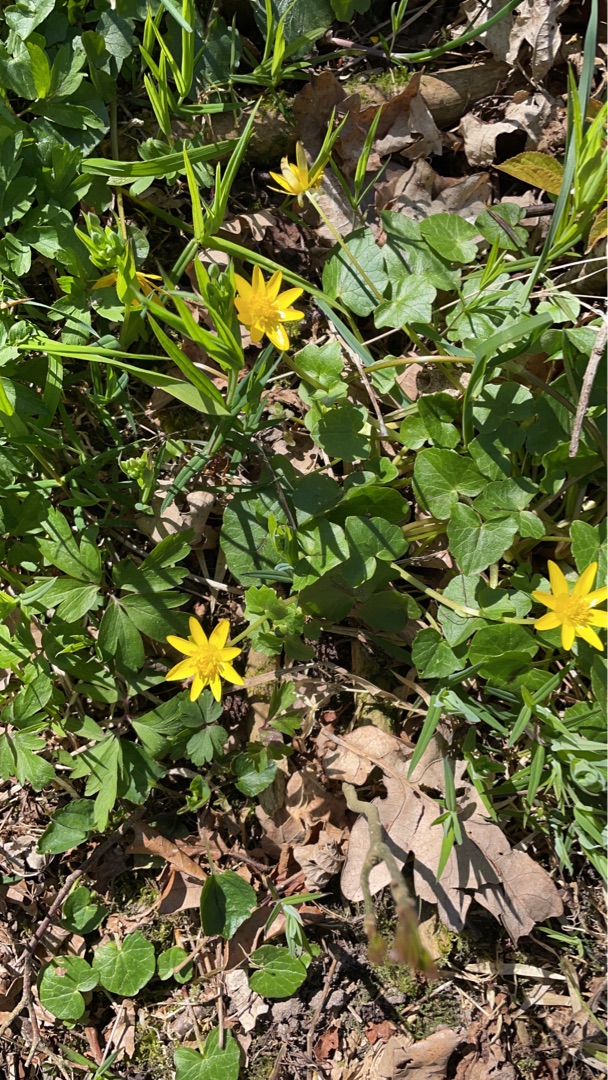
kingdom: Plantae
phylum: Tracheophyta
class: Magnoliopsida
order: Ranunculales
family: Ranunculaceae
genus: Ficaria
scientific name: Ficaria verna
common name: Vorterod
